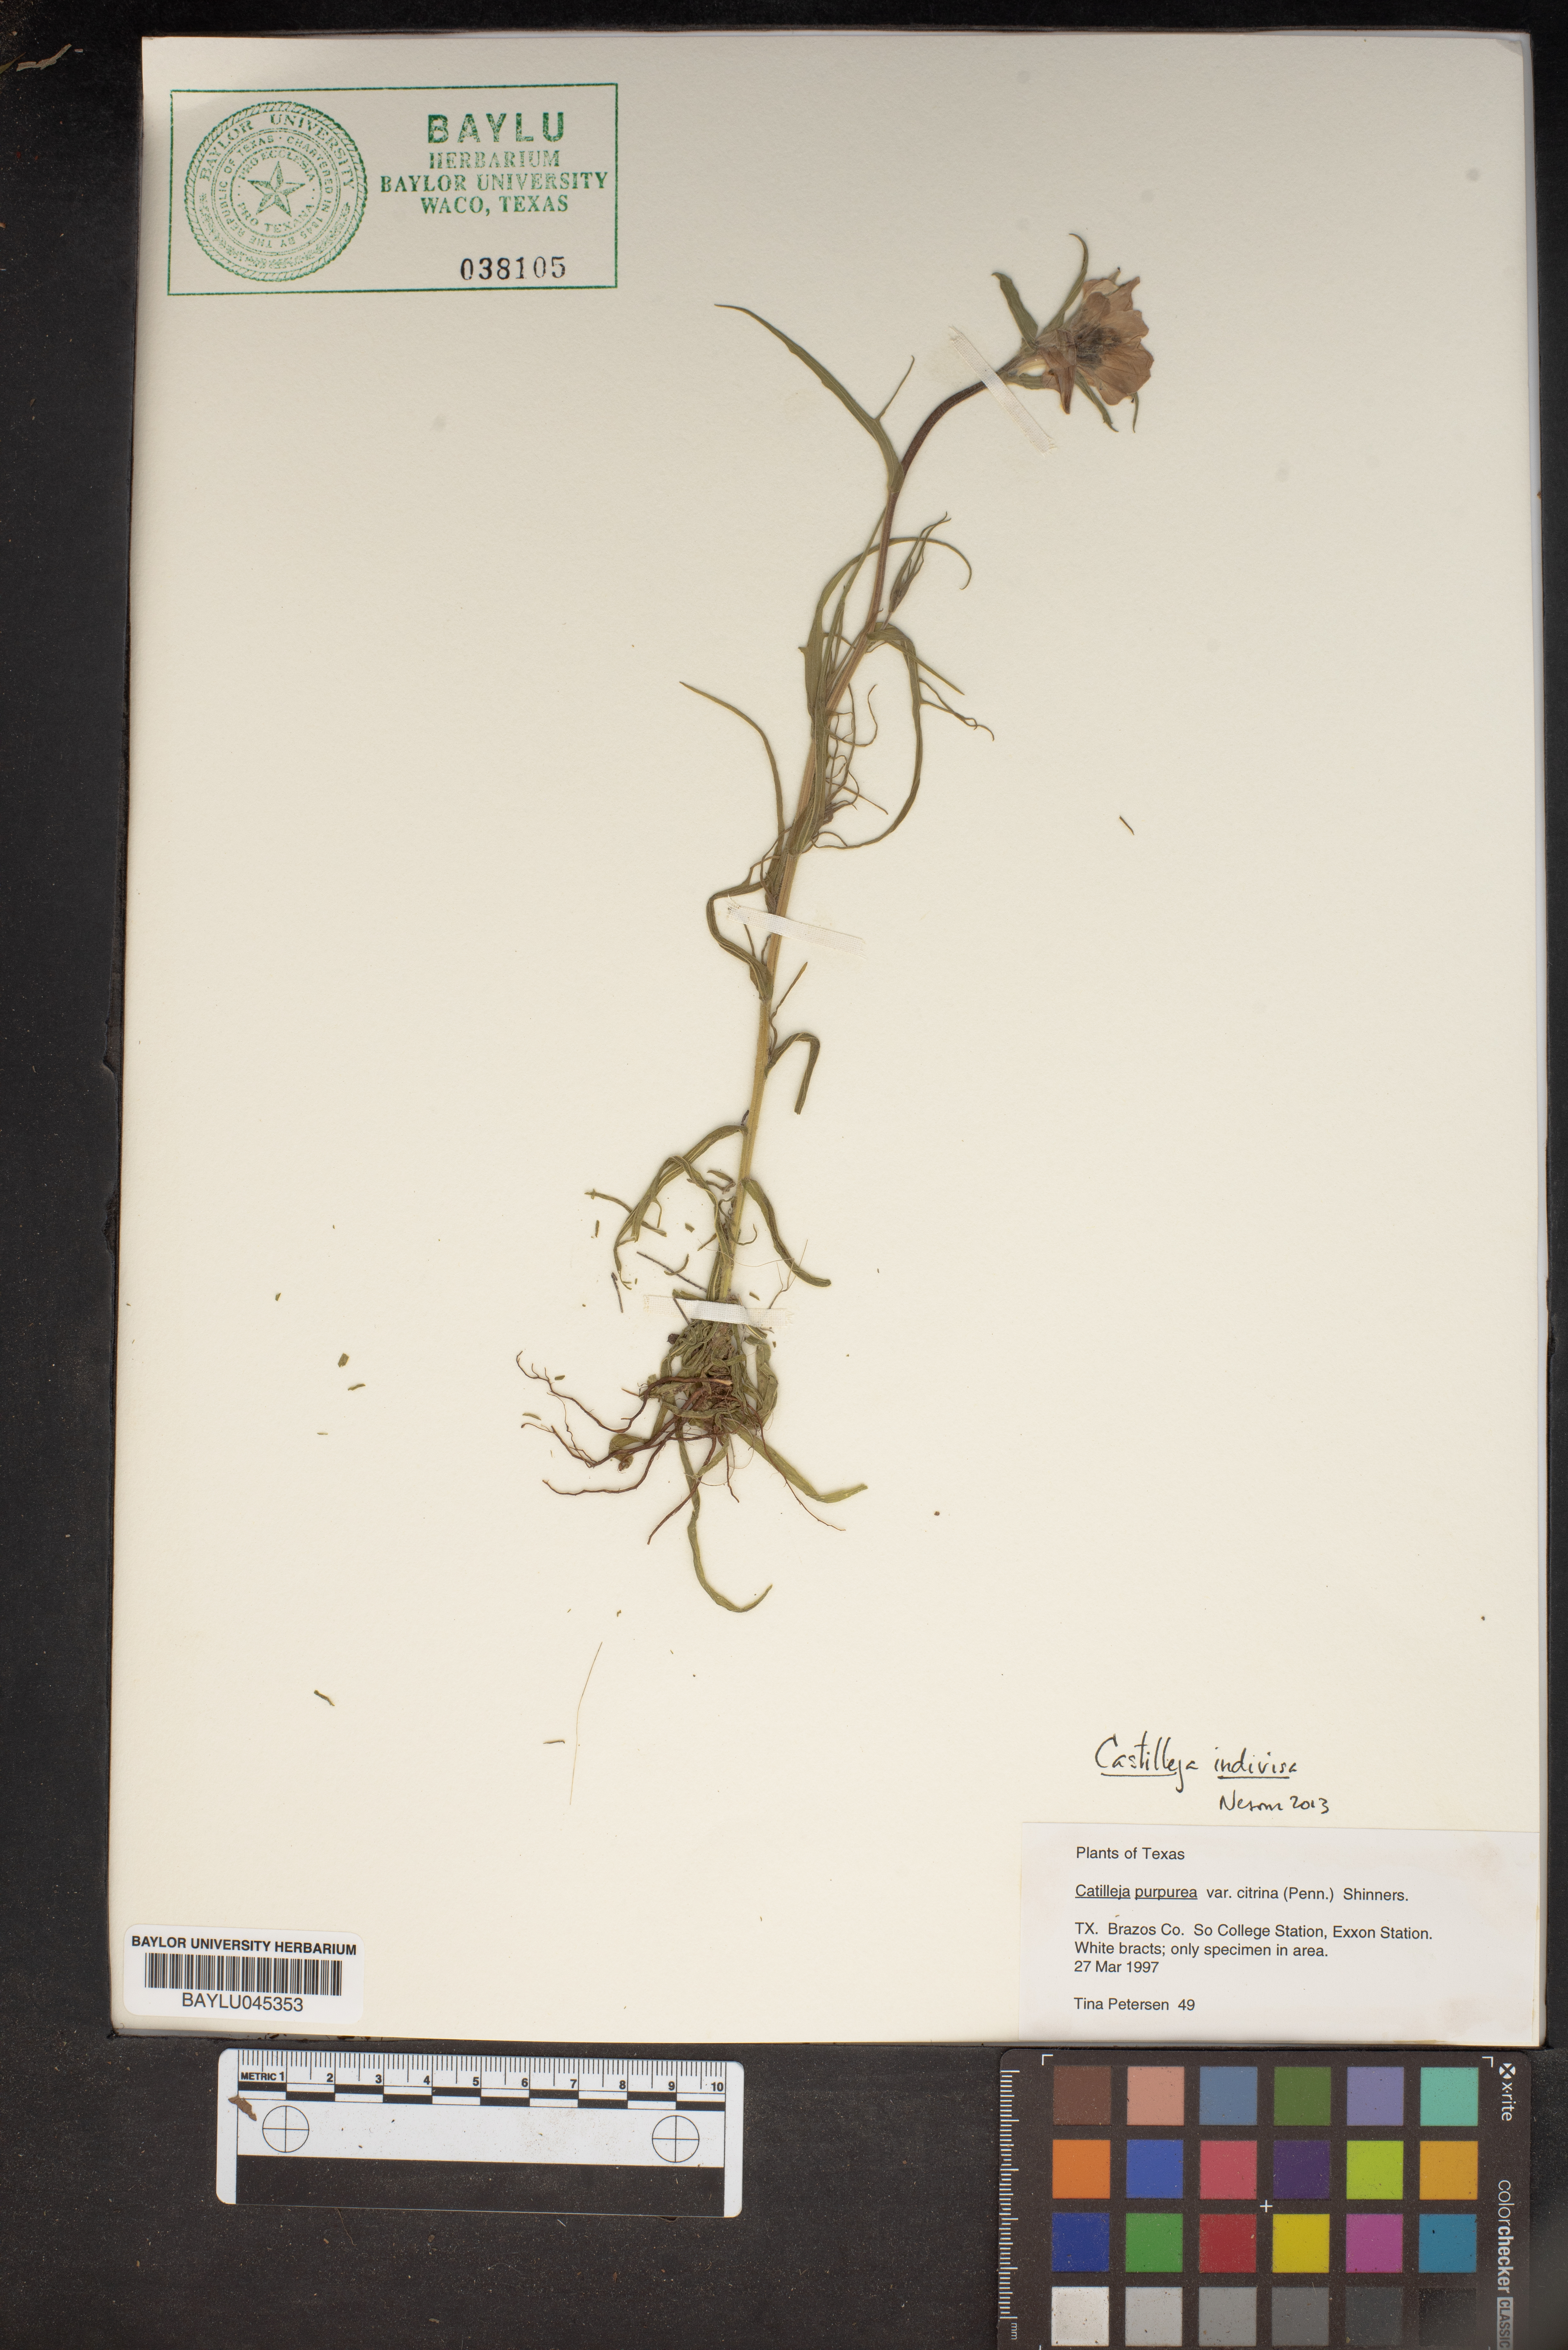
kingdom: Plantae
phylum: Tracheophyta
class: Magnoliopsida
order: Lamiales
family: Orobanchaceae
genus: Castilleja
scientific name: Castilleja purpurea
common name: Plains paintbrush
